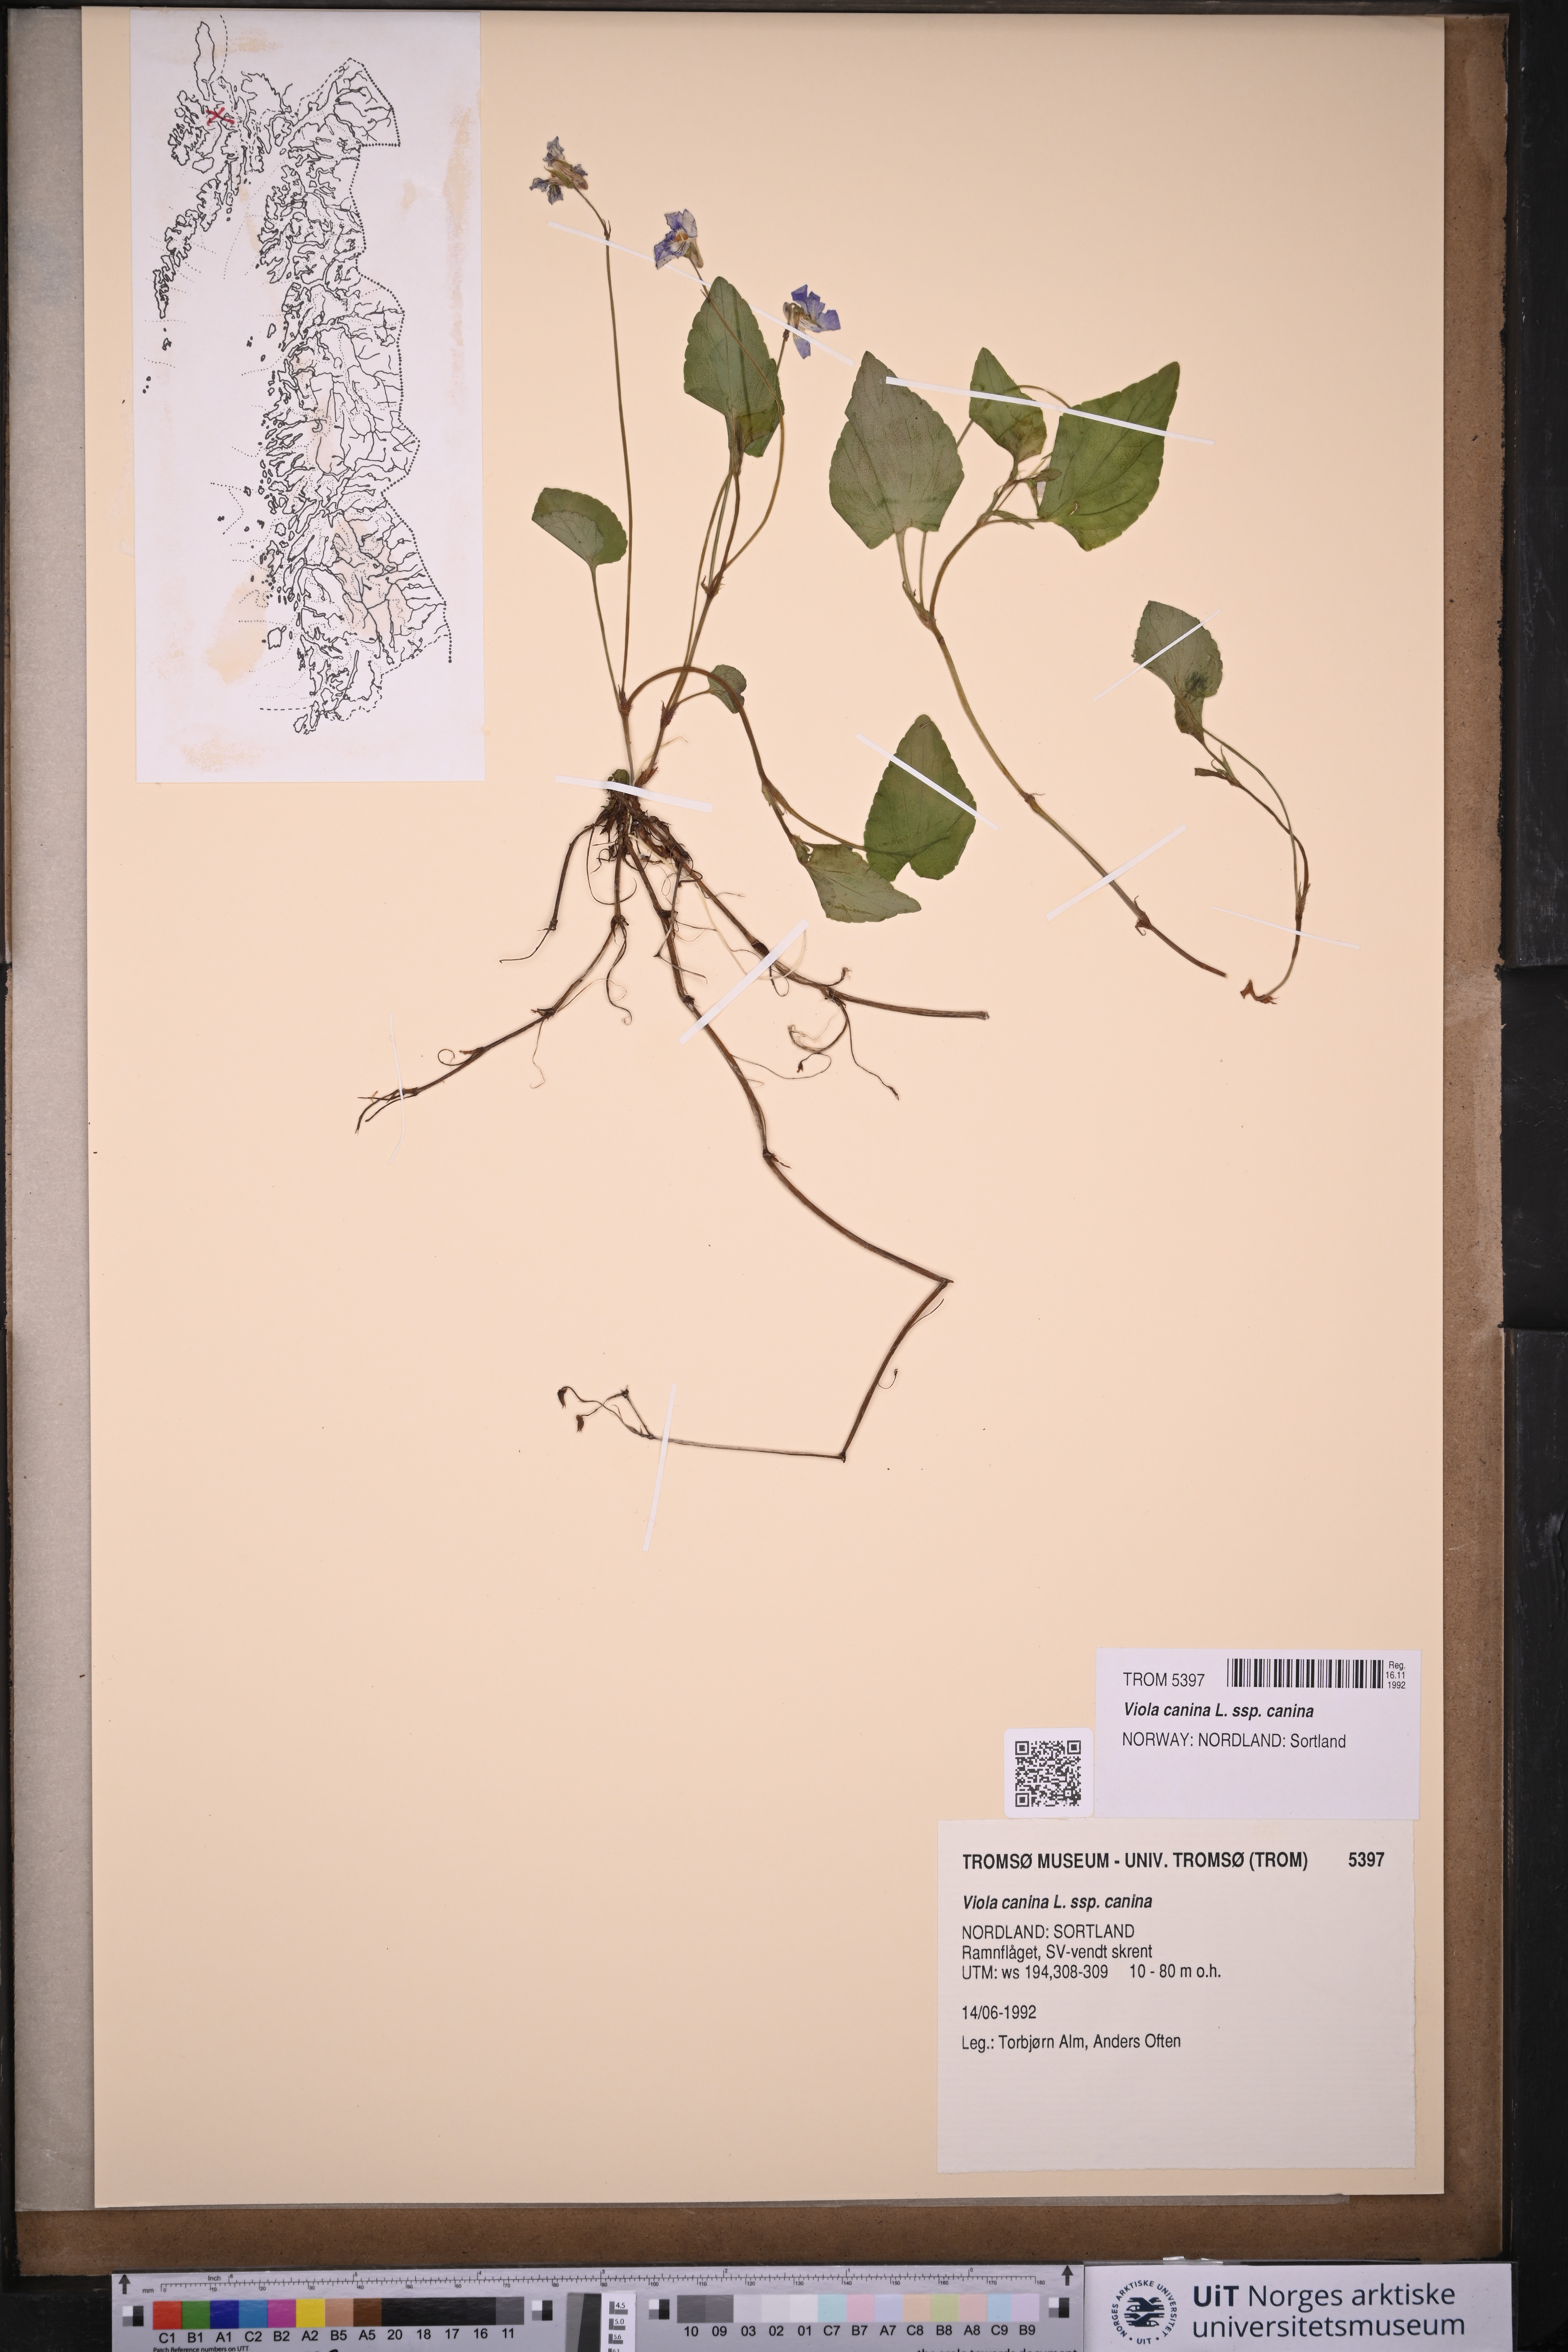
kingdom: Plantae
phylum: Tracheophyta
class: Magnoliopsida
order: Malpighiales
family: Violaceae
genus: Viola
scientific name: Viola canina
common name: Heath dog-violet
